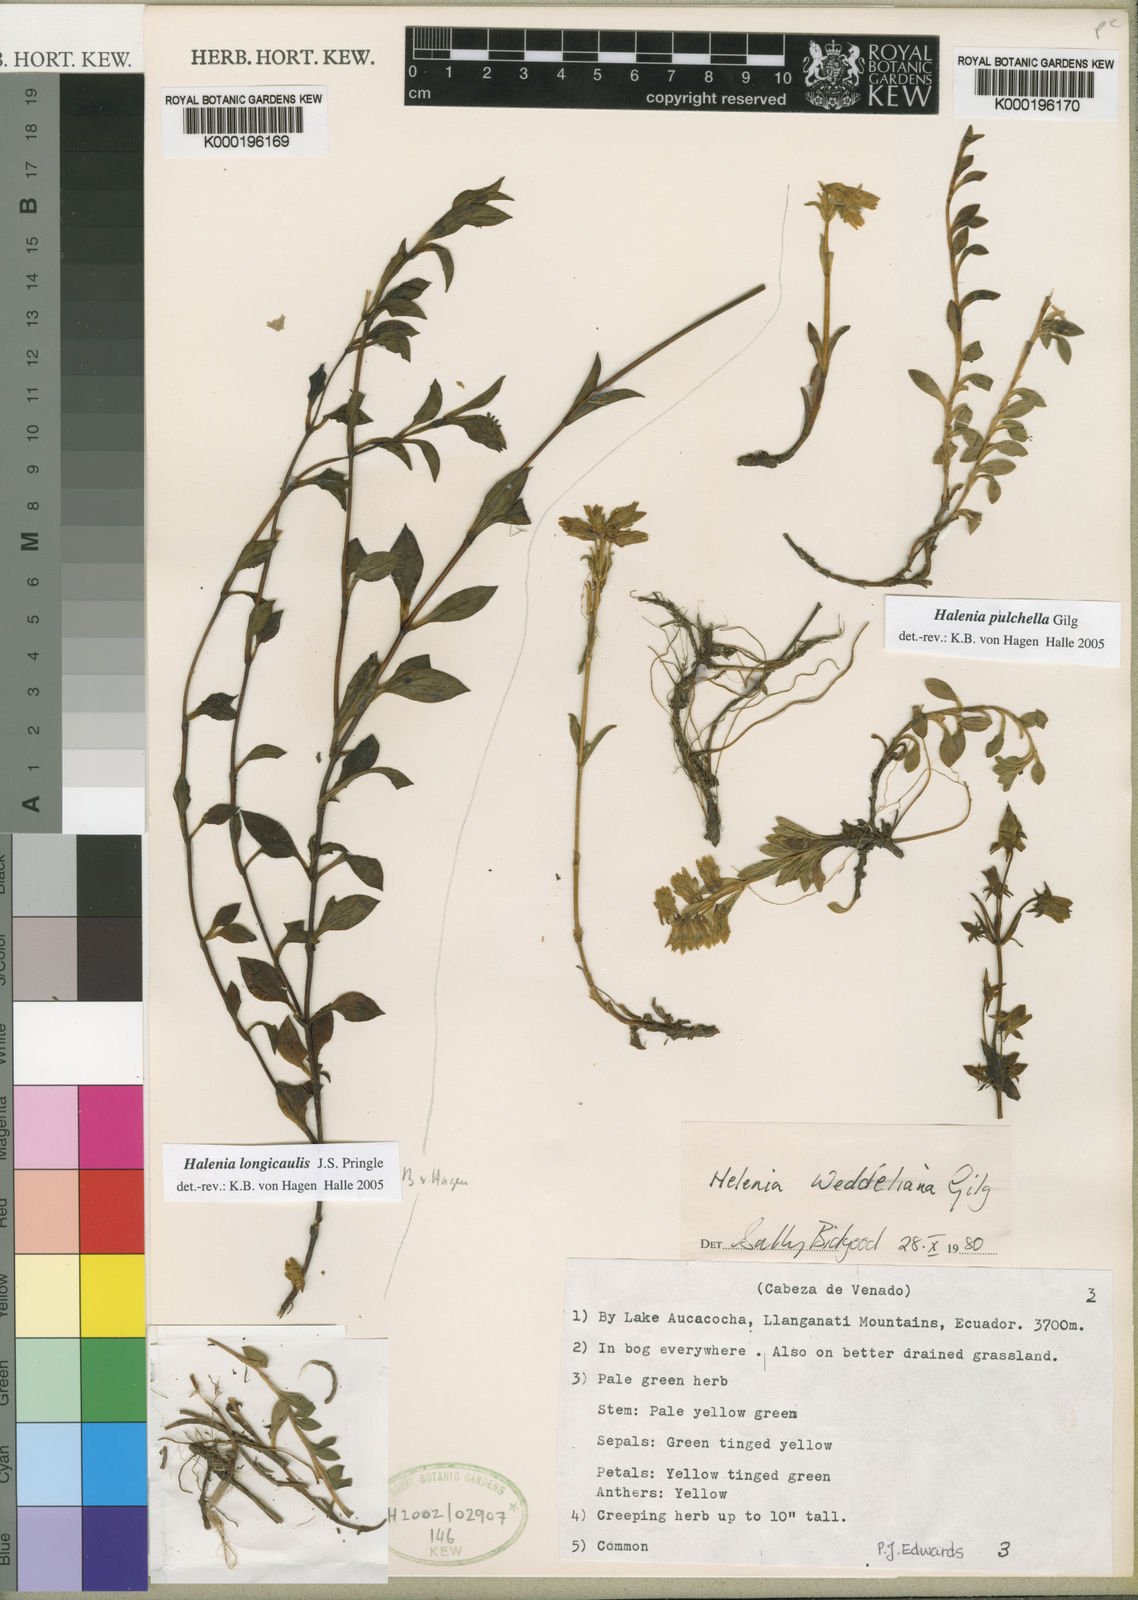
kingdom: Plantae
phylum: Tracheophyta
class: Magnoliopsida
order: Gentianales
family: Gentianaceae
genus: Halenia
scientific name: Halenia longicaulis
